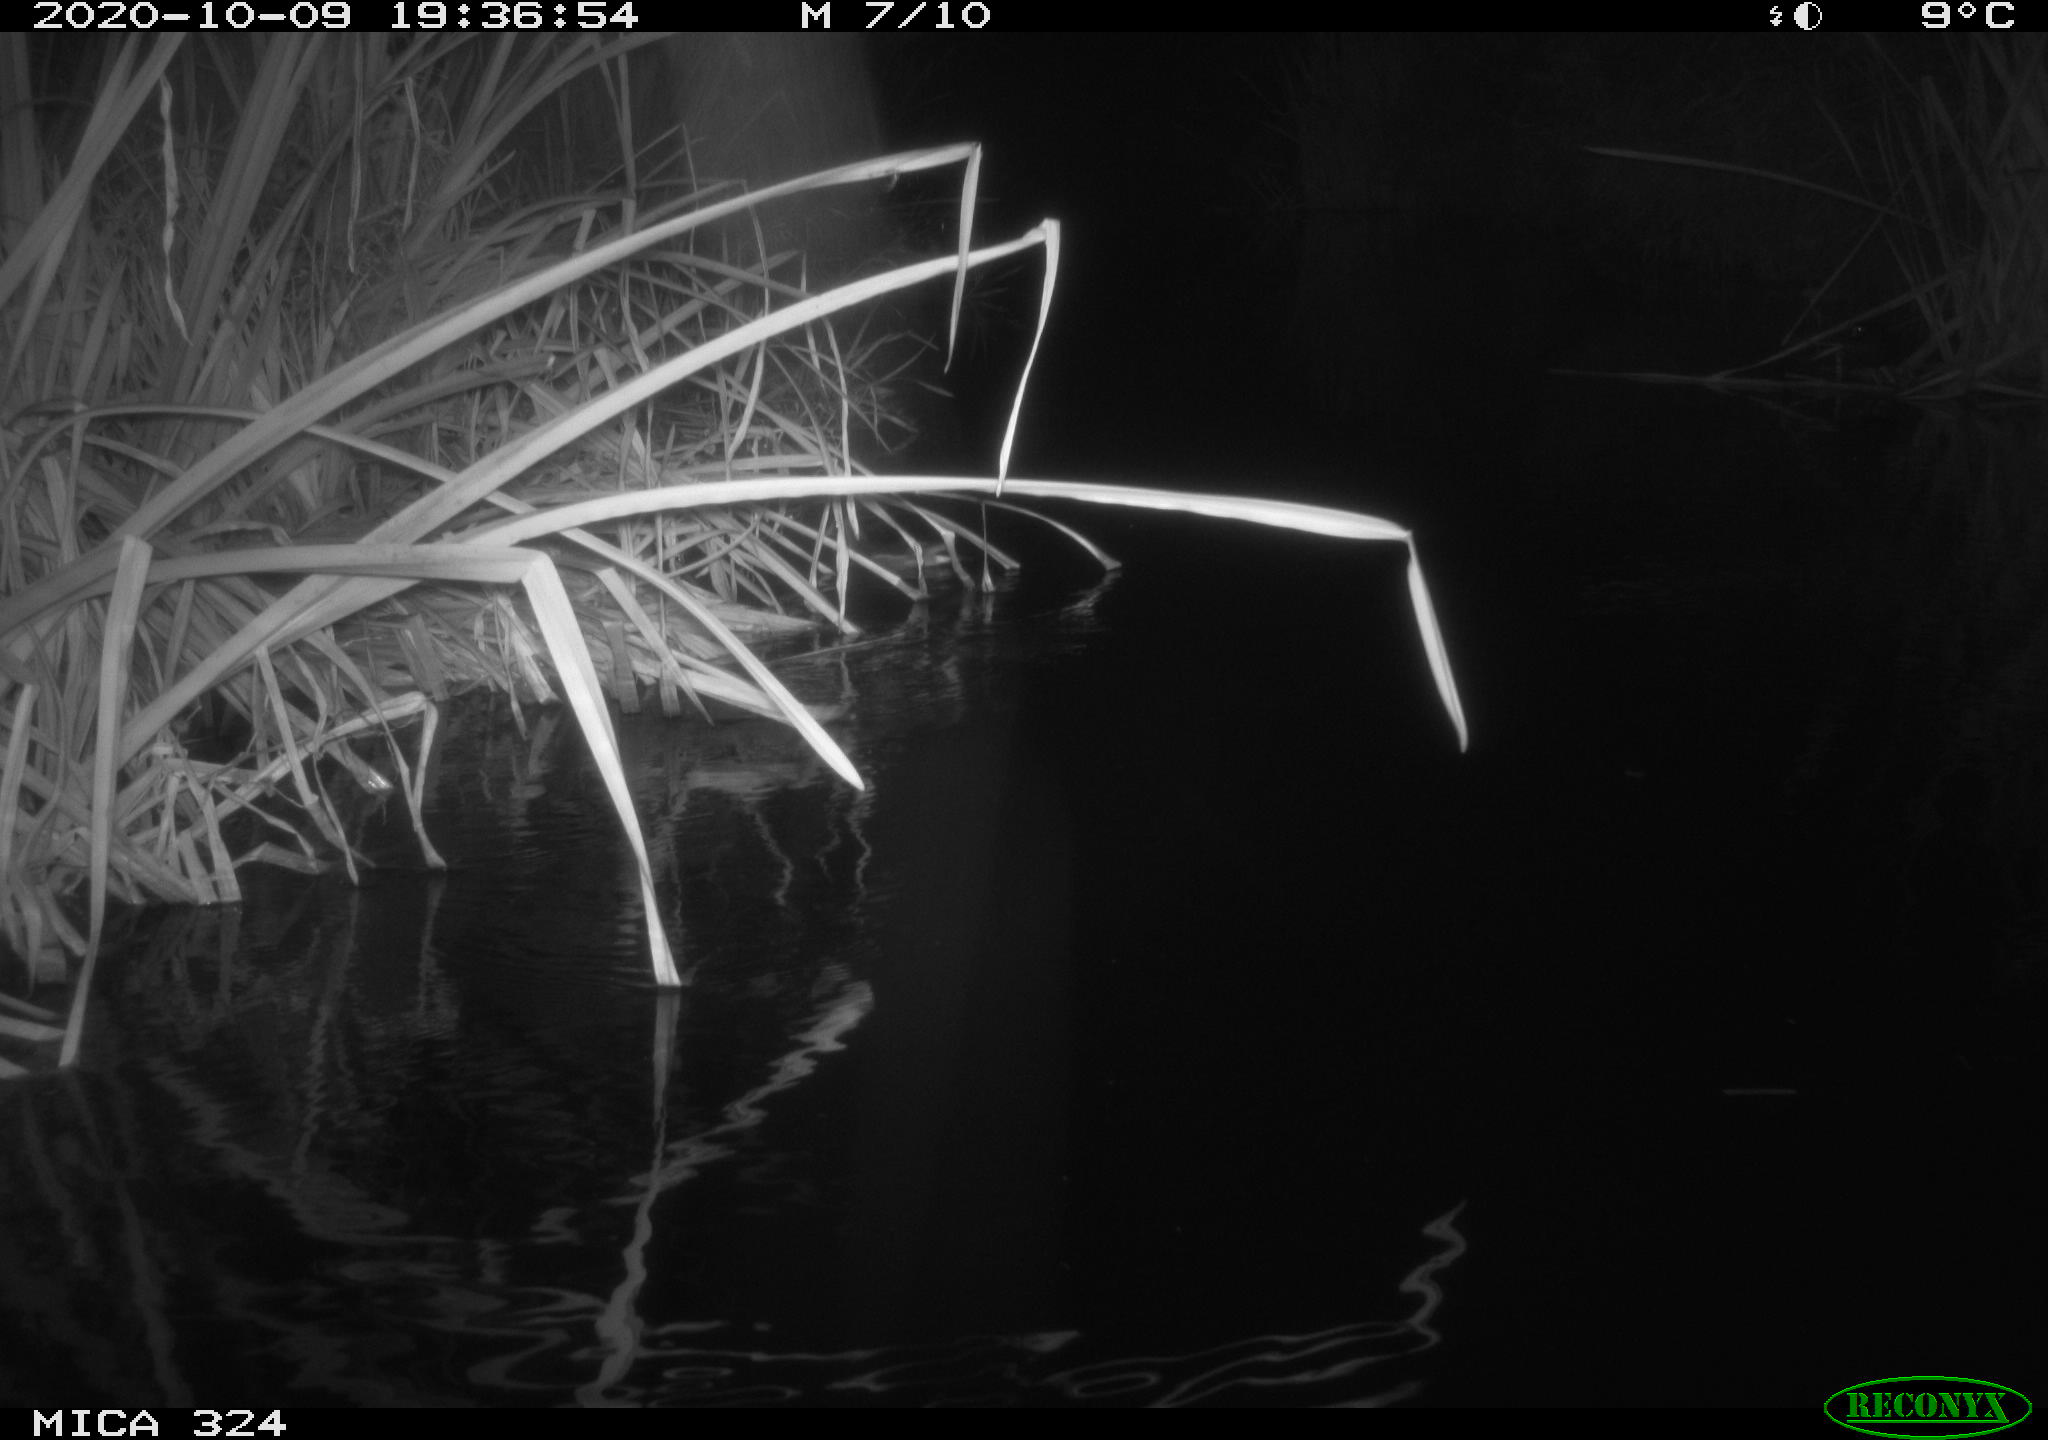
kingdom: Animalia
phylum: Chordata
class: Aves
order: Gruiformes
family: Rallidae
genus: Gallinula
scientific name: Gallinula chloropus
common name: Common moorhen
